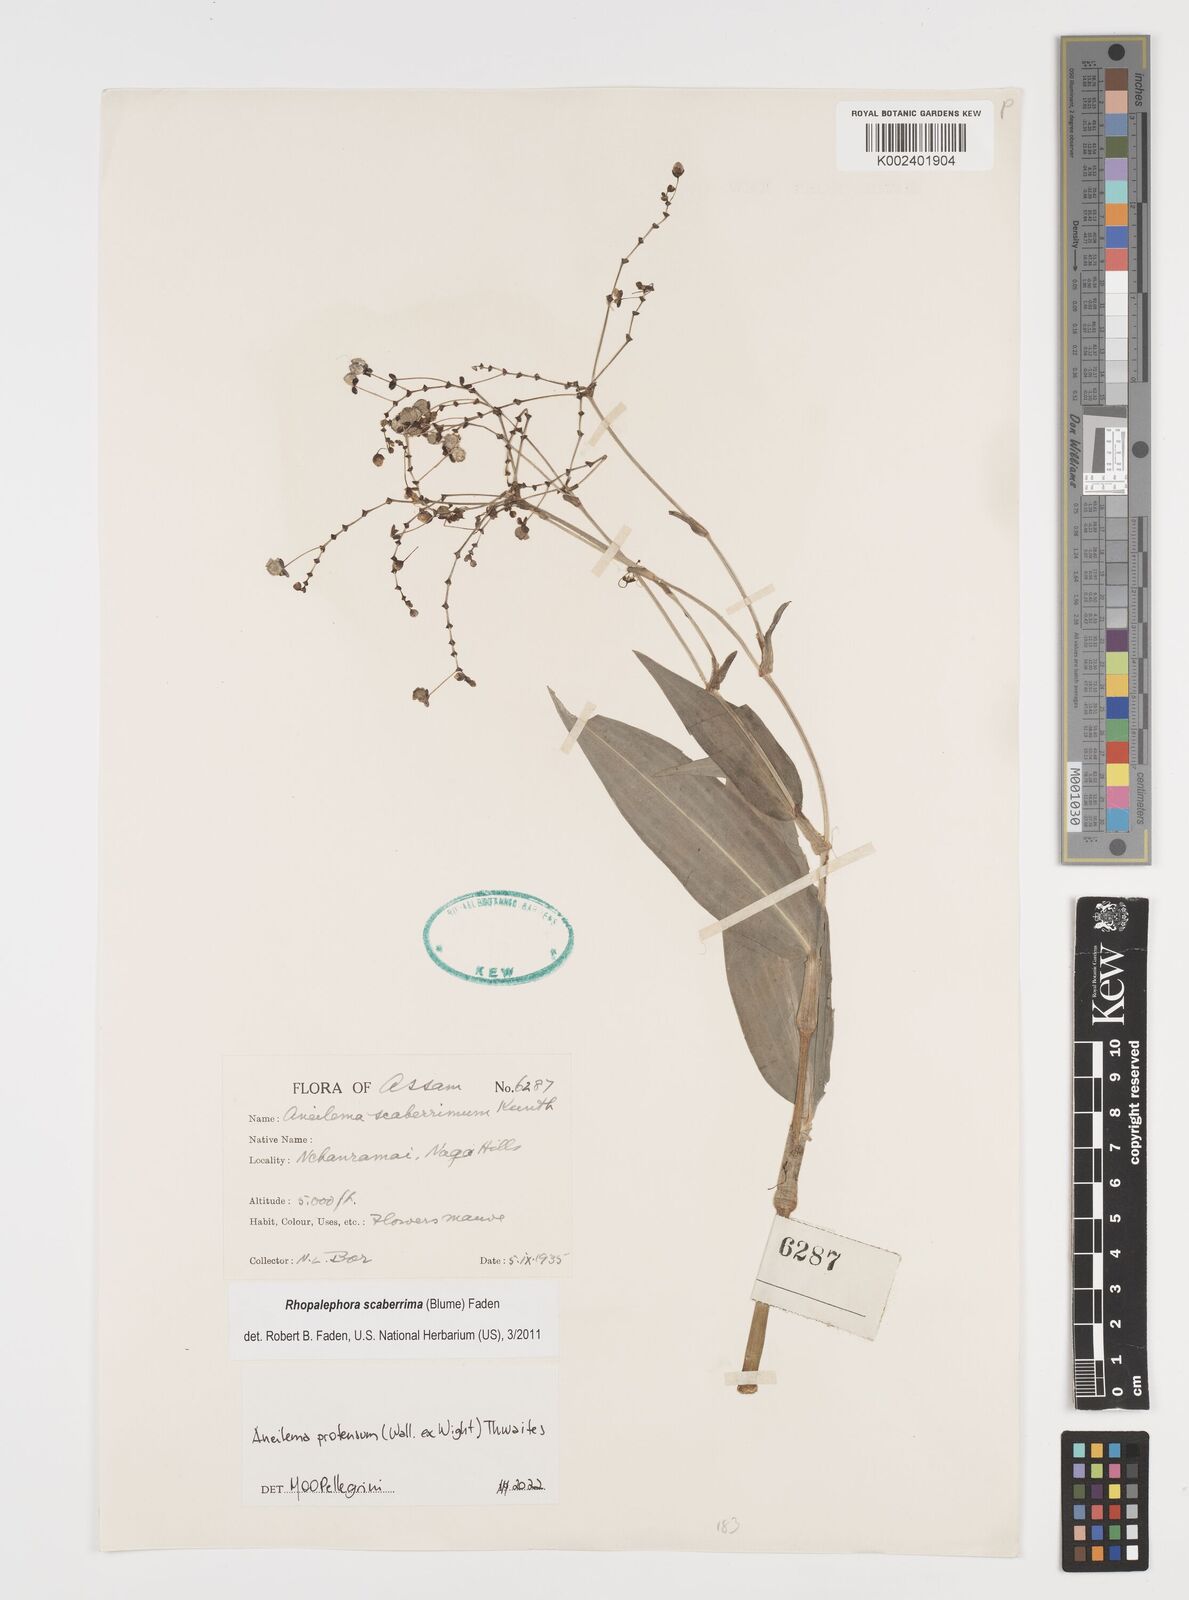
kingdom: Plantae
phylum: Tracheophyta
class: Liliopsida
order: Commelinales
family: Commelinaceae
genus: Rhopalephora
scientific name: Rhopalephora
